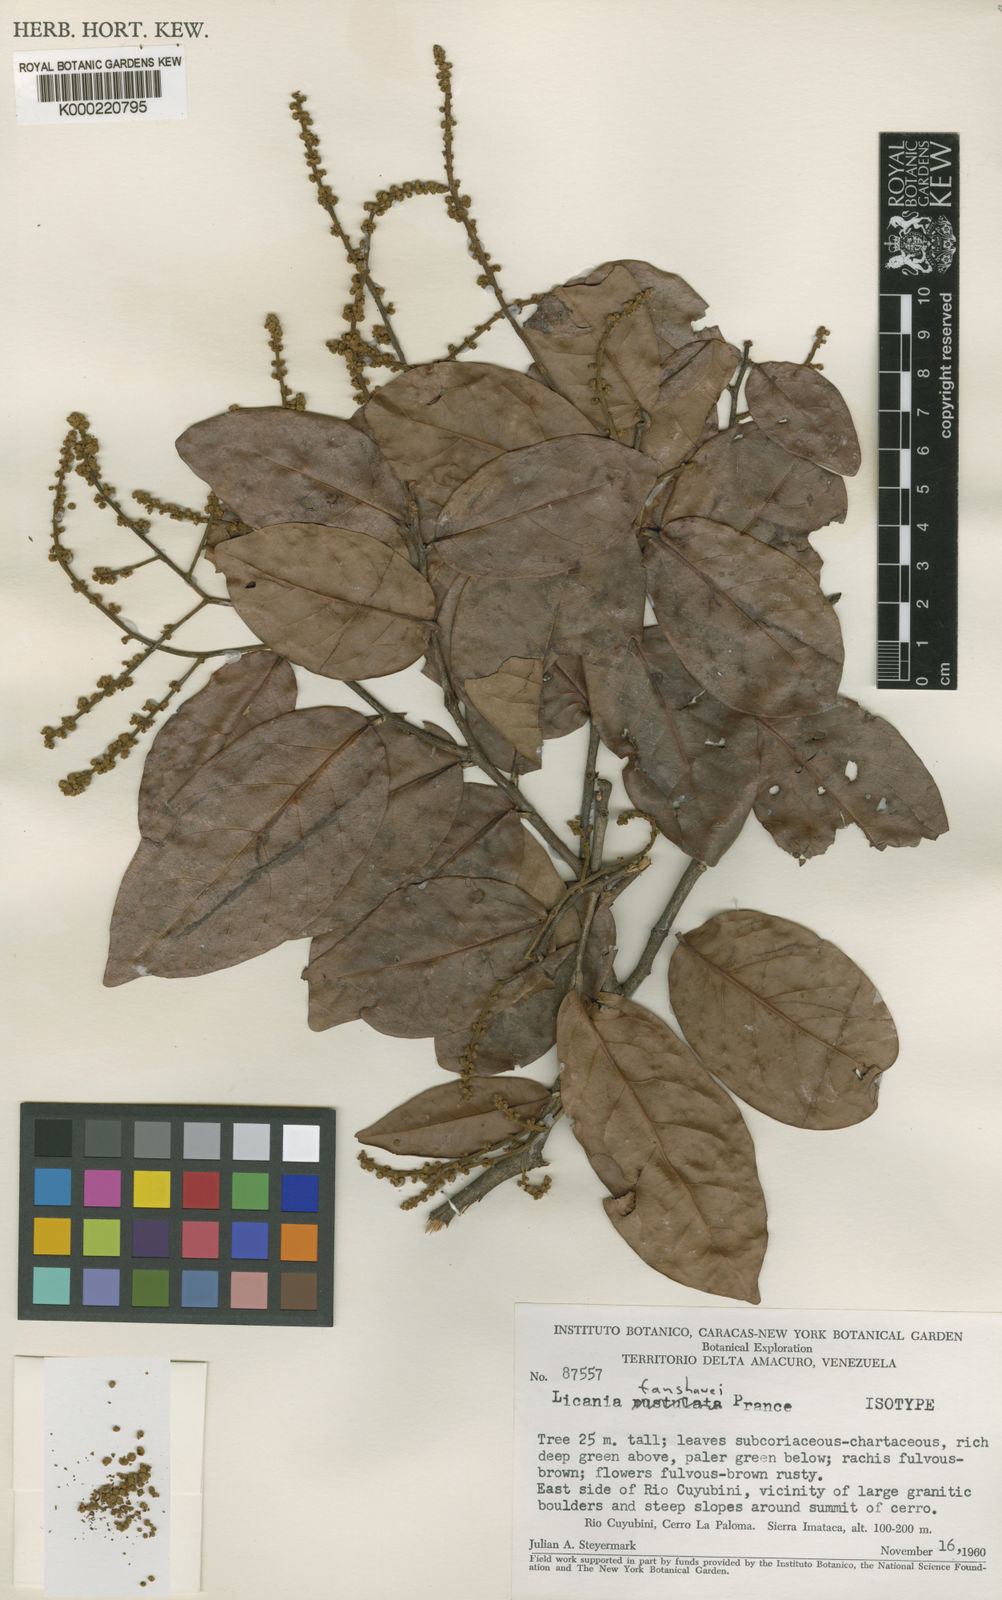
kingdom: Plantae
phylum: Tracheophyta
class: Magnoliopsida
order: Malpighiales
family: Chrysobalanaceae
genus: Licania
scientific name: Licania fanshawei
